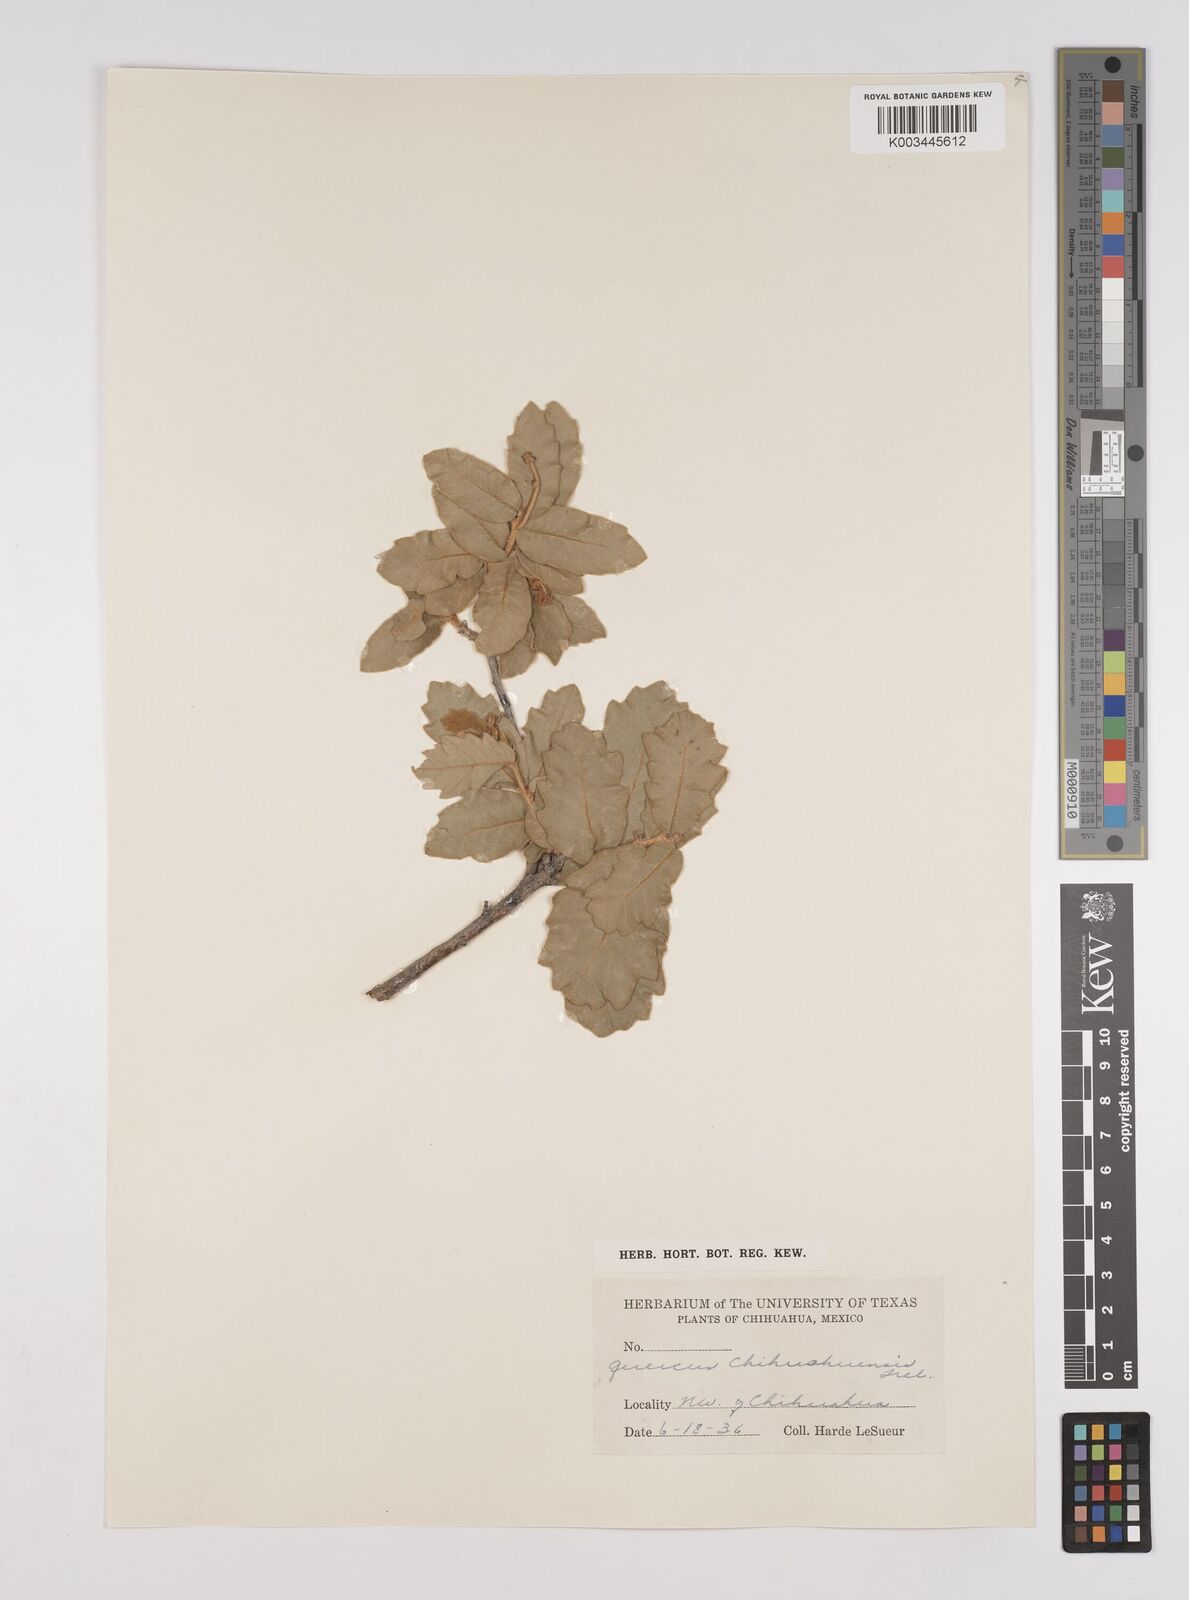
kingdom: Plantae
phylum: Tracheophyta
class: Magnoliopsida
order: Fagales
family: Fagaceae
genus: Quercus
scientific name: Quercus chihuahuensis
